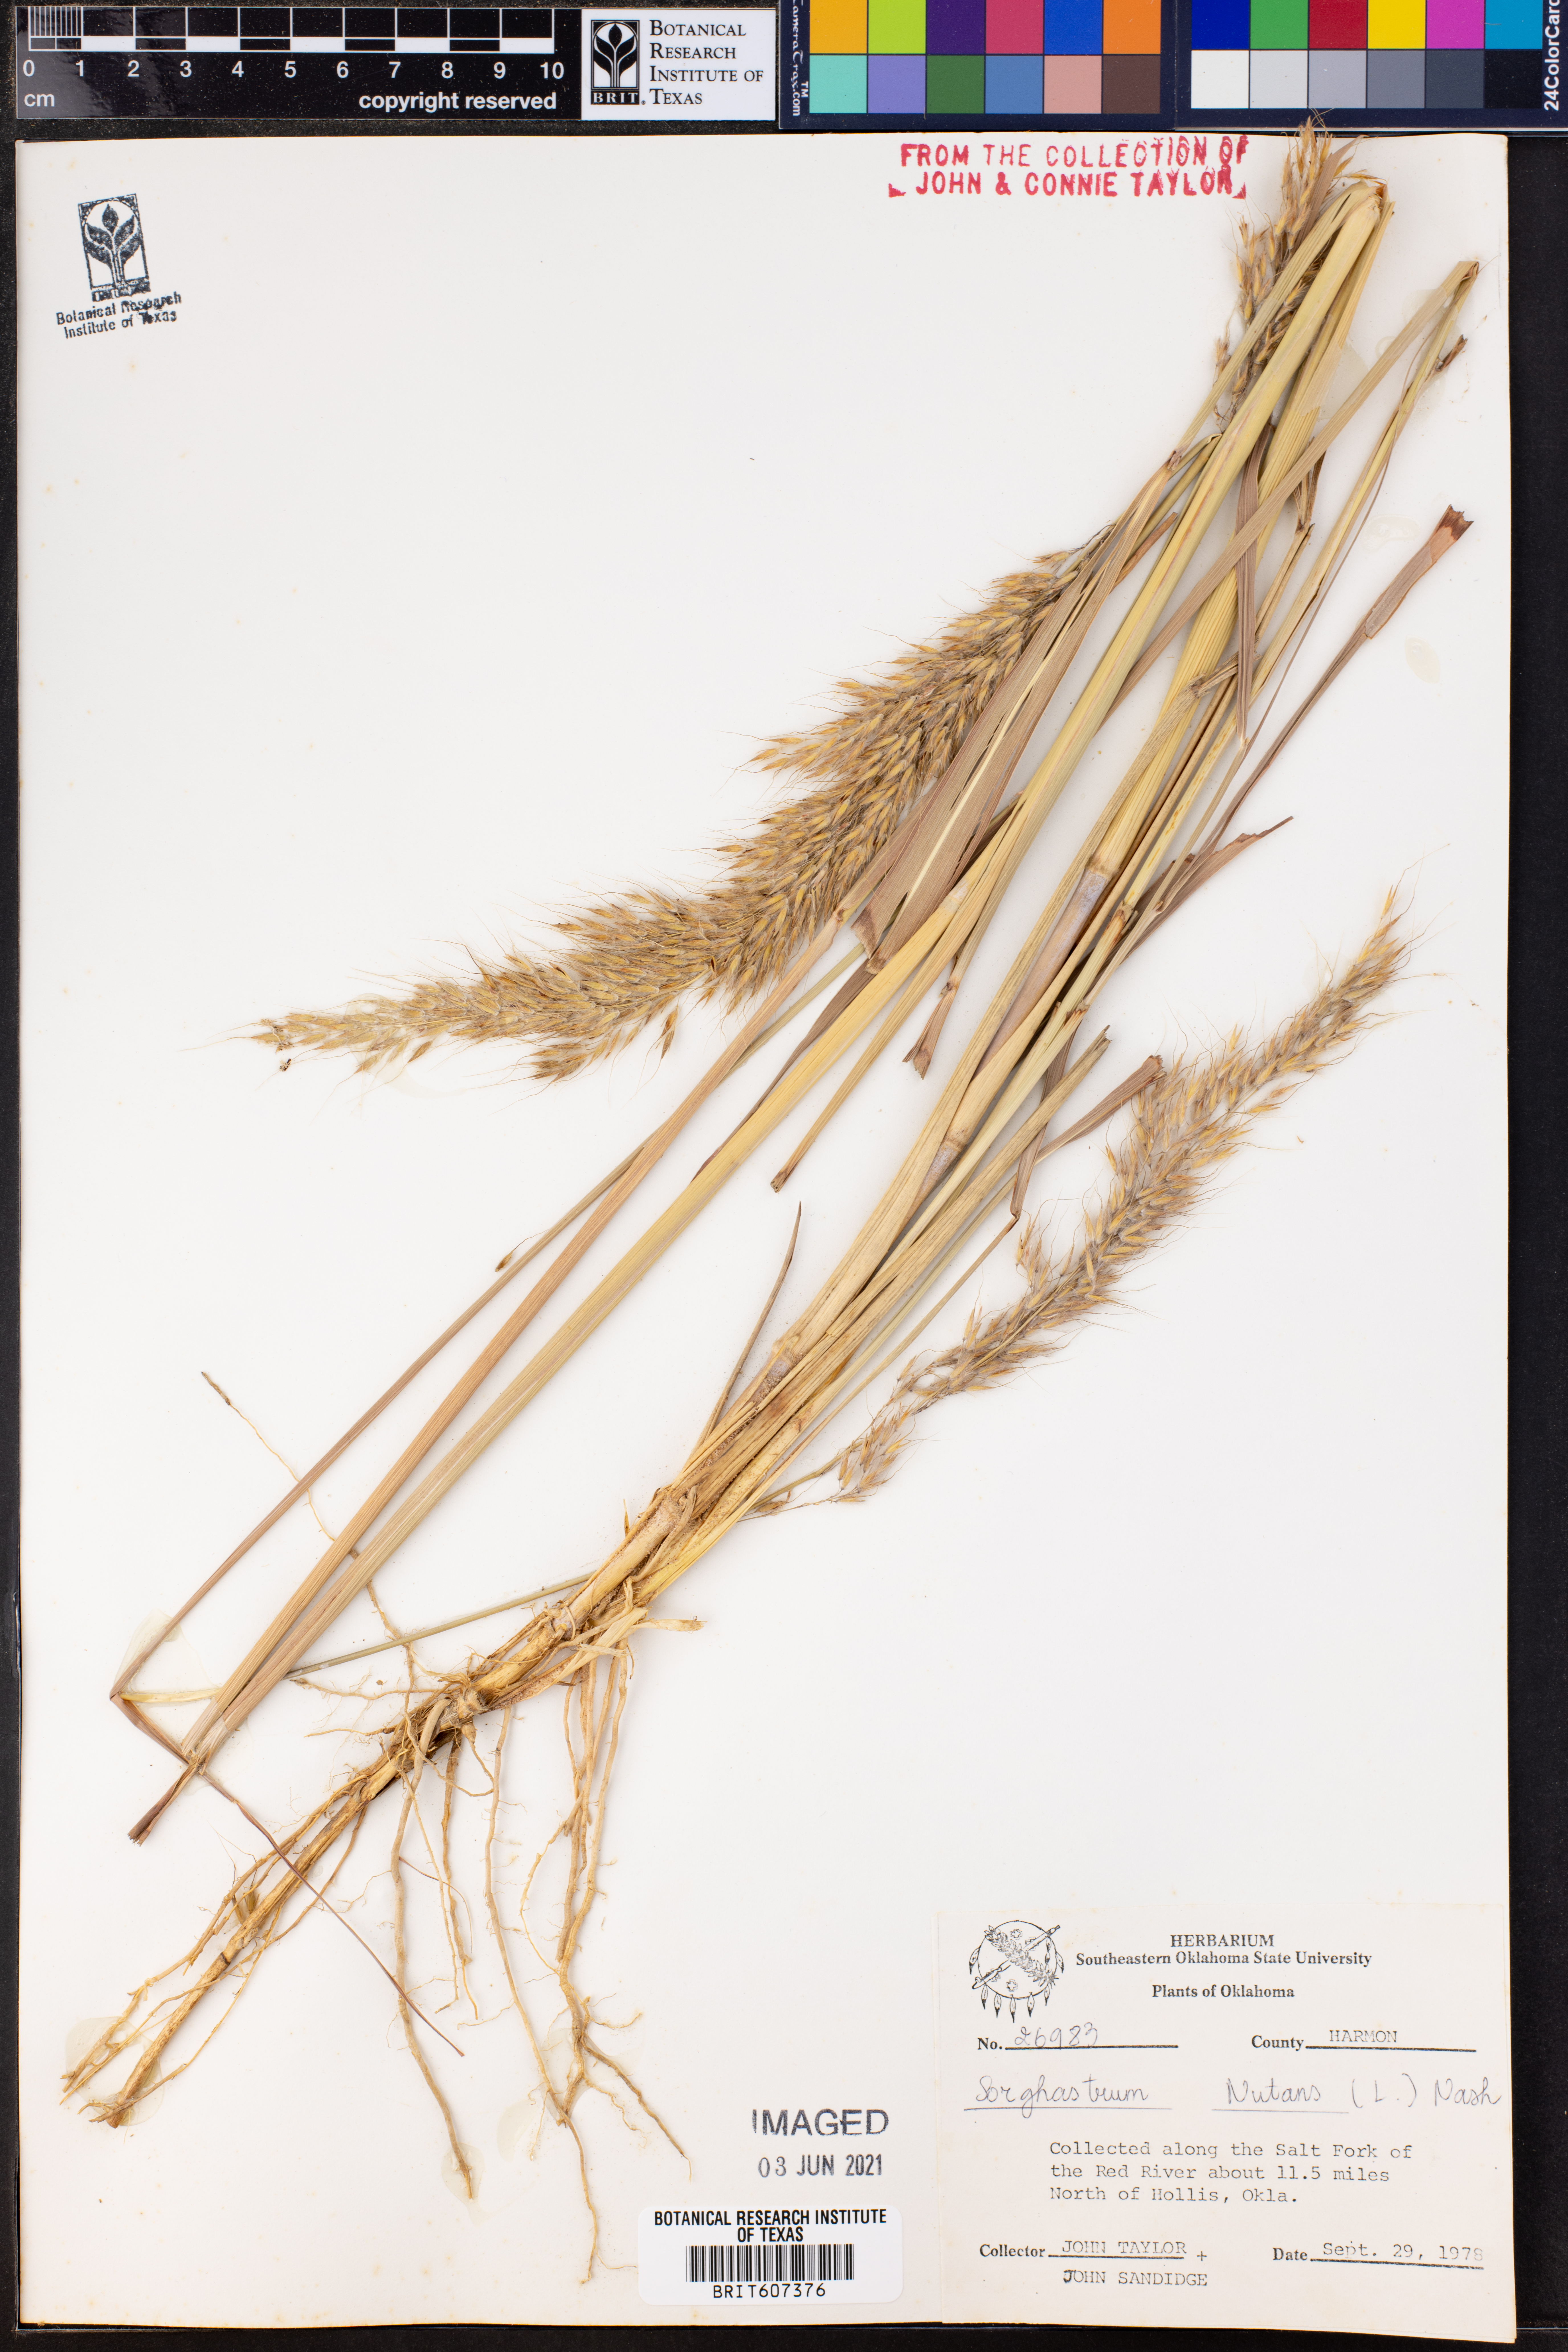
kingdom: Plantae
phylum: Tracheophyta
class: Liliopsida
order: Poales
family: Poaceae
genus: Sorghastrum
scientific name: Sorghastrum nutans
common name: Indian grass
